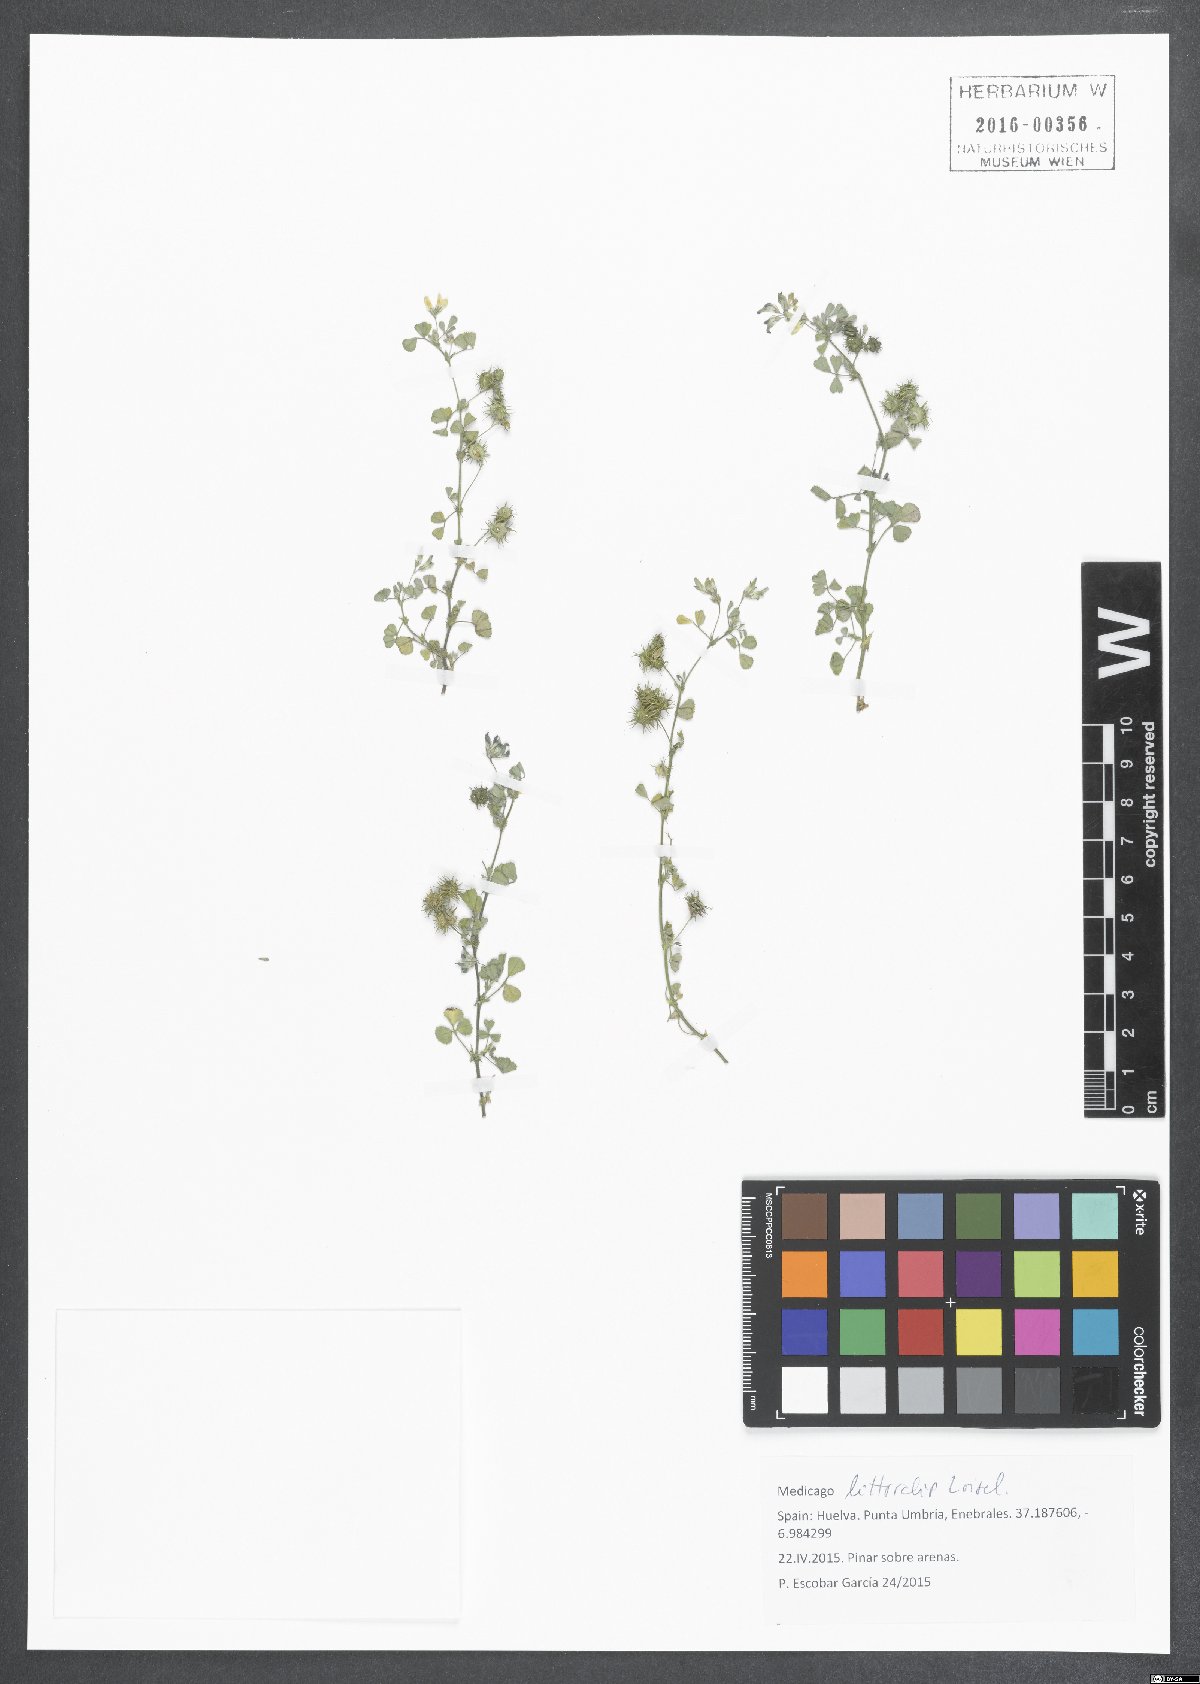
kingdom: Plantae
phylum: Tracheophyta
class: Magnoliopsida
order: Fabales
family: Fabaceae
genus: Medicago
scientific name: Medicago littoralis
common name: Shore medick
